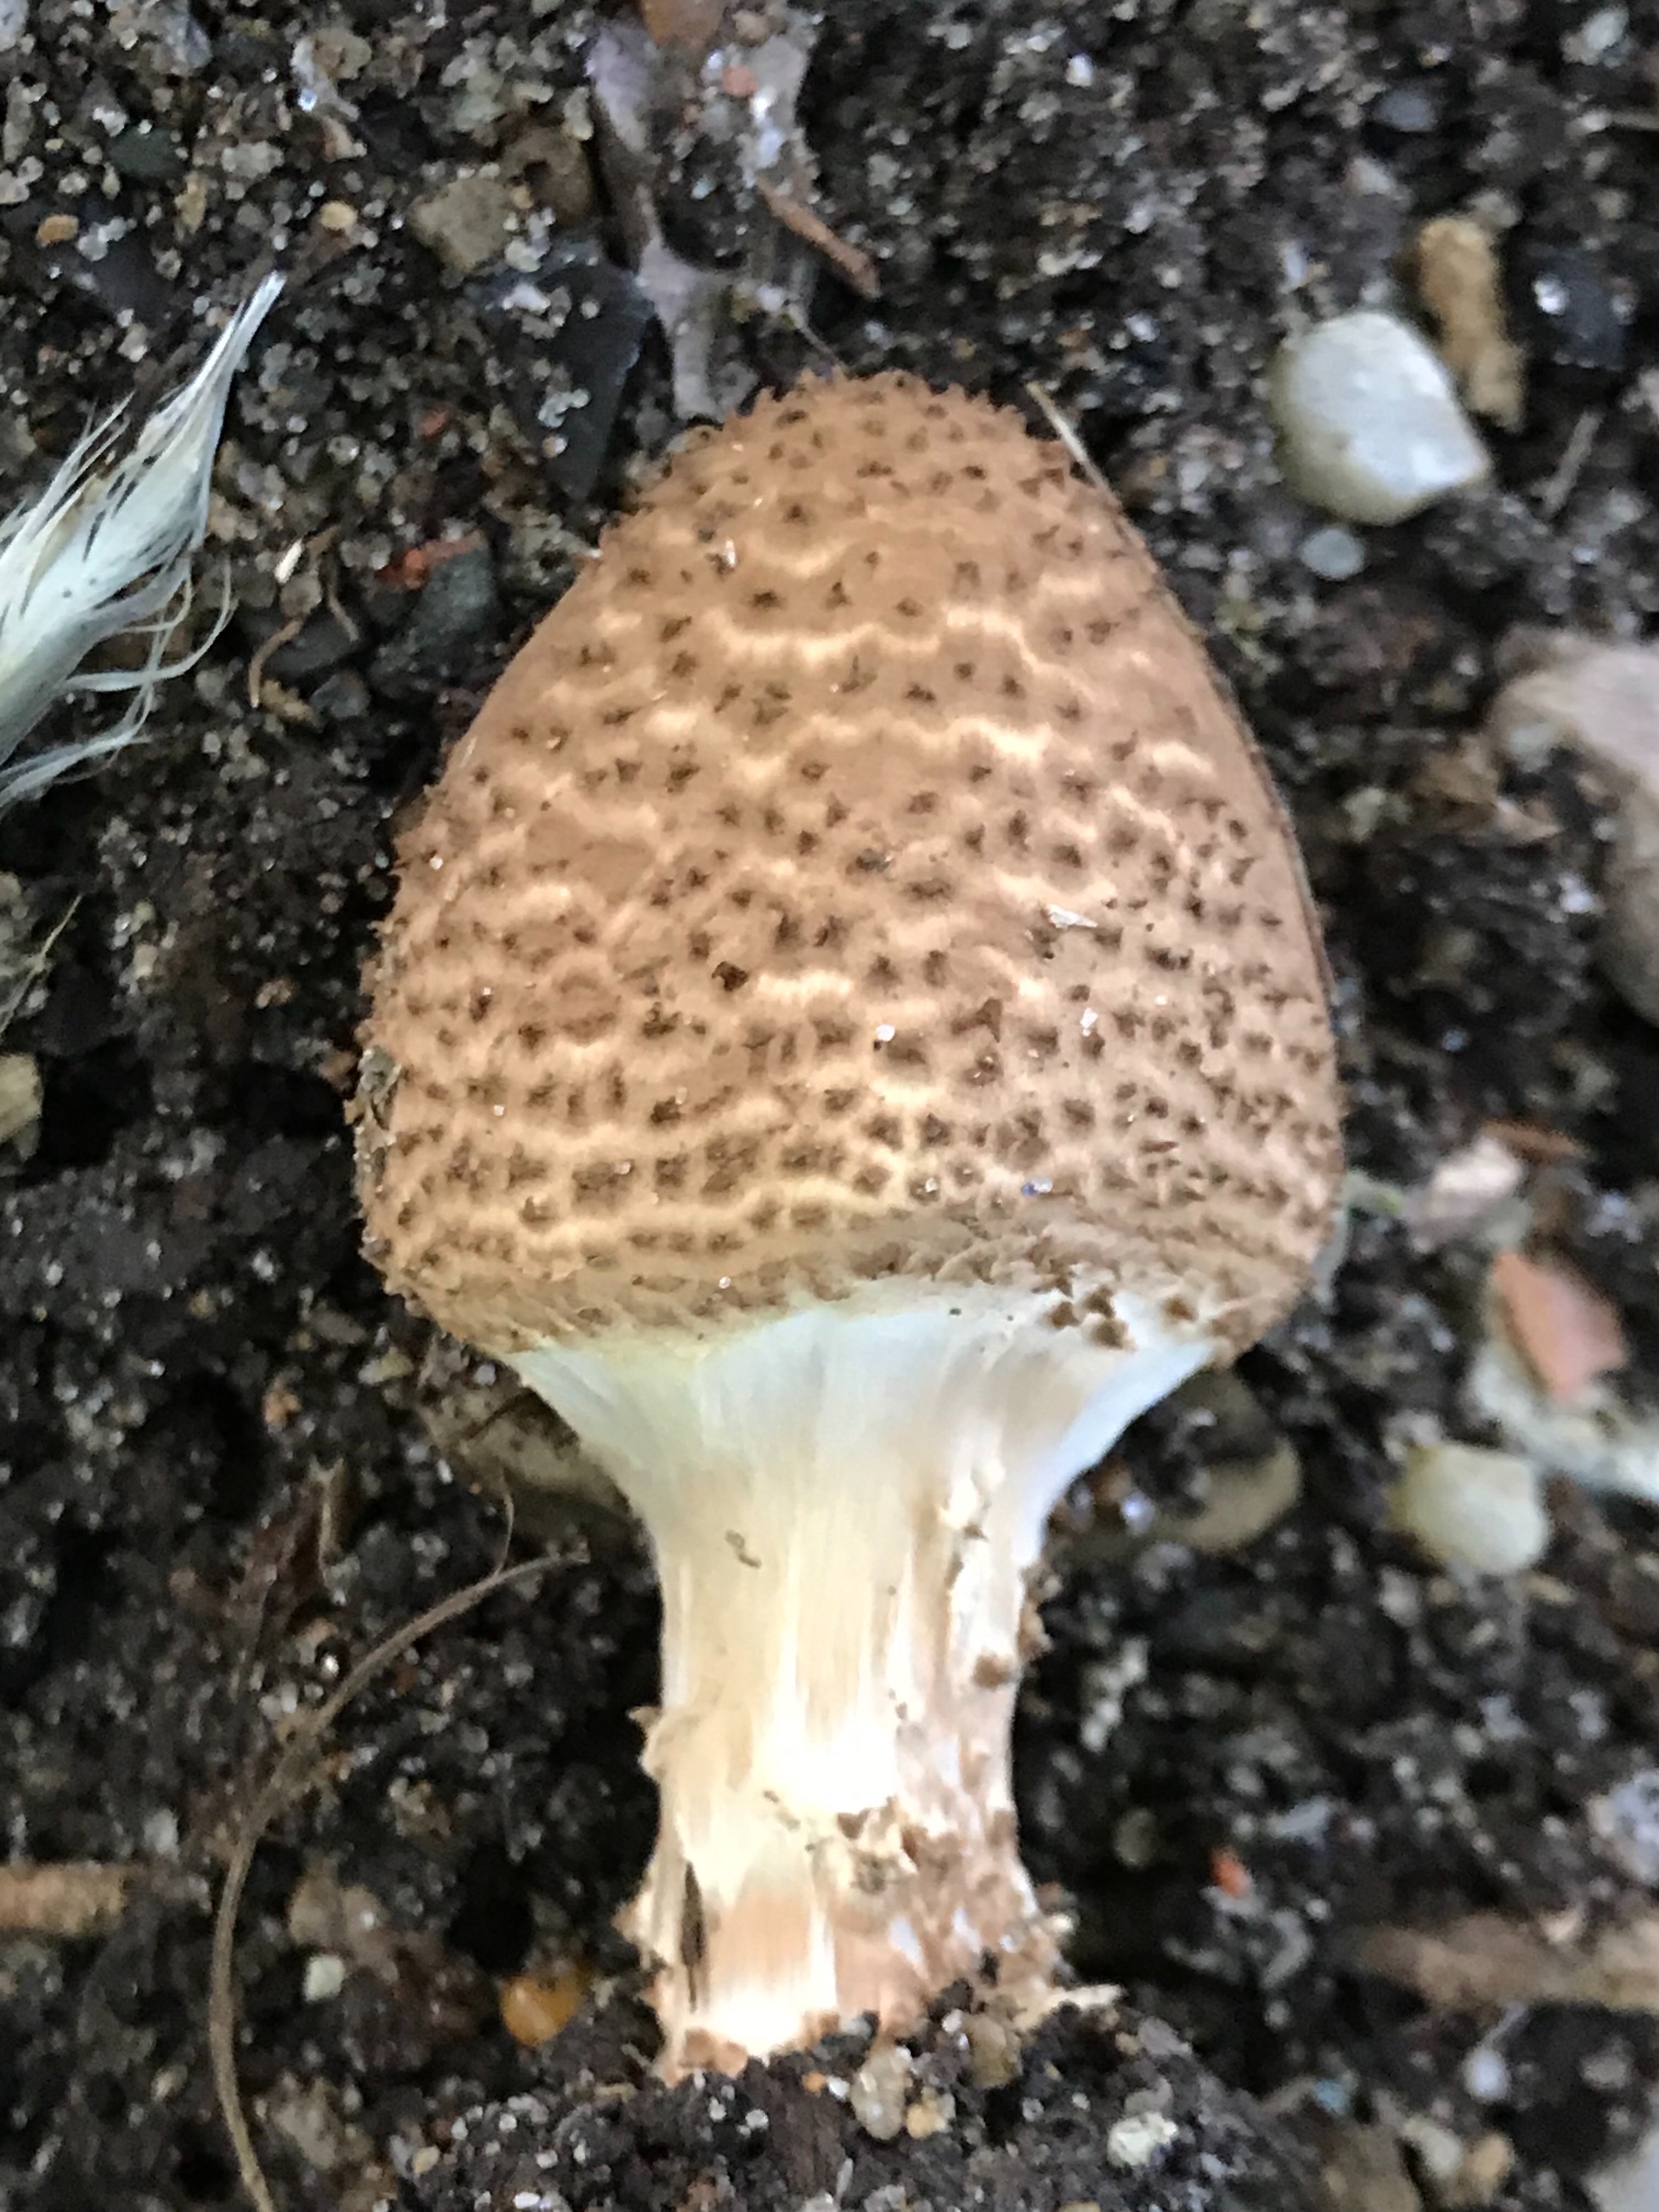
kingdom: Fungi
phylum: Basidiomycota
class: Agaricomycetes
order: Agaricales
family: Agaricaceae
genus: Echinoderma
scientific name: Echinoderma asperum
